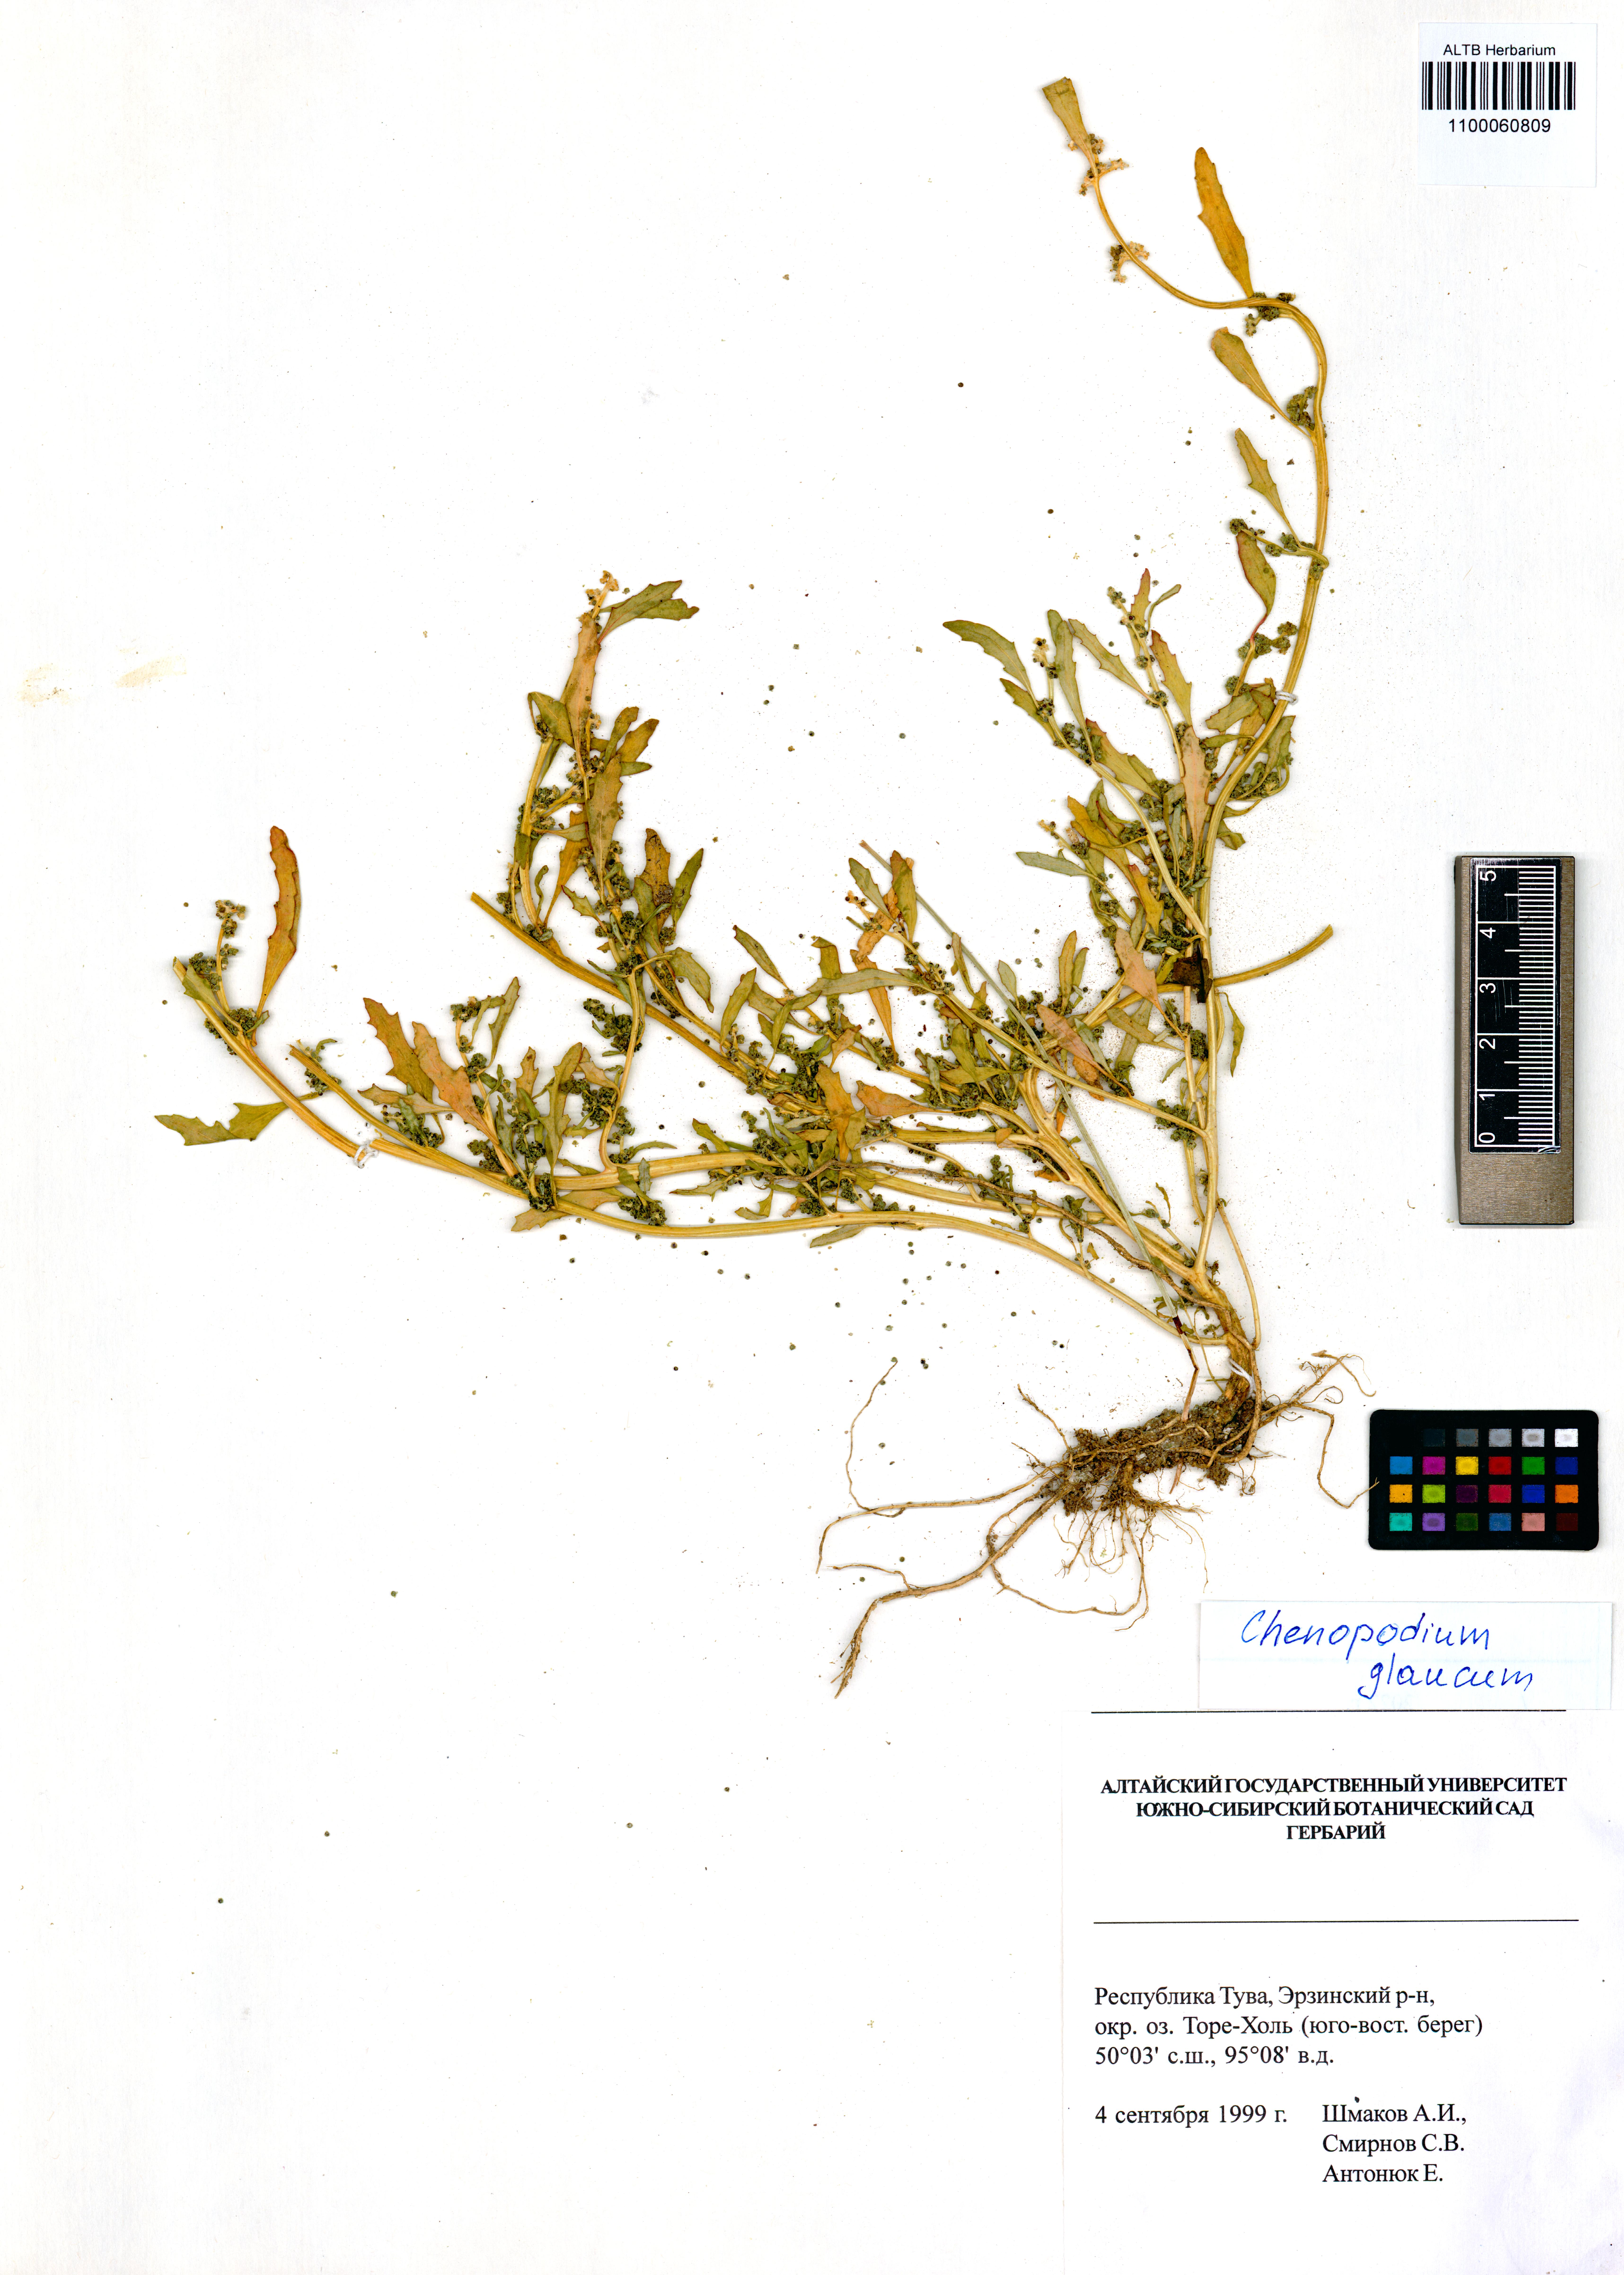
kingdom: Plantae
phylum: Tracheophyta
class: Magnoliopsida
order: Caryophyllales
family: Amaranthaceae
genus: Oxybasis
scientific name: Oxybasis glauca
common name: Glaucous goosefoot
